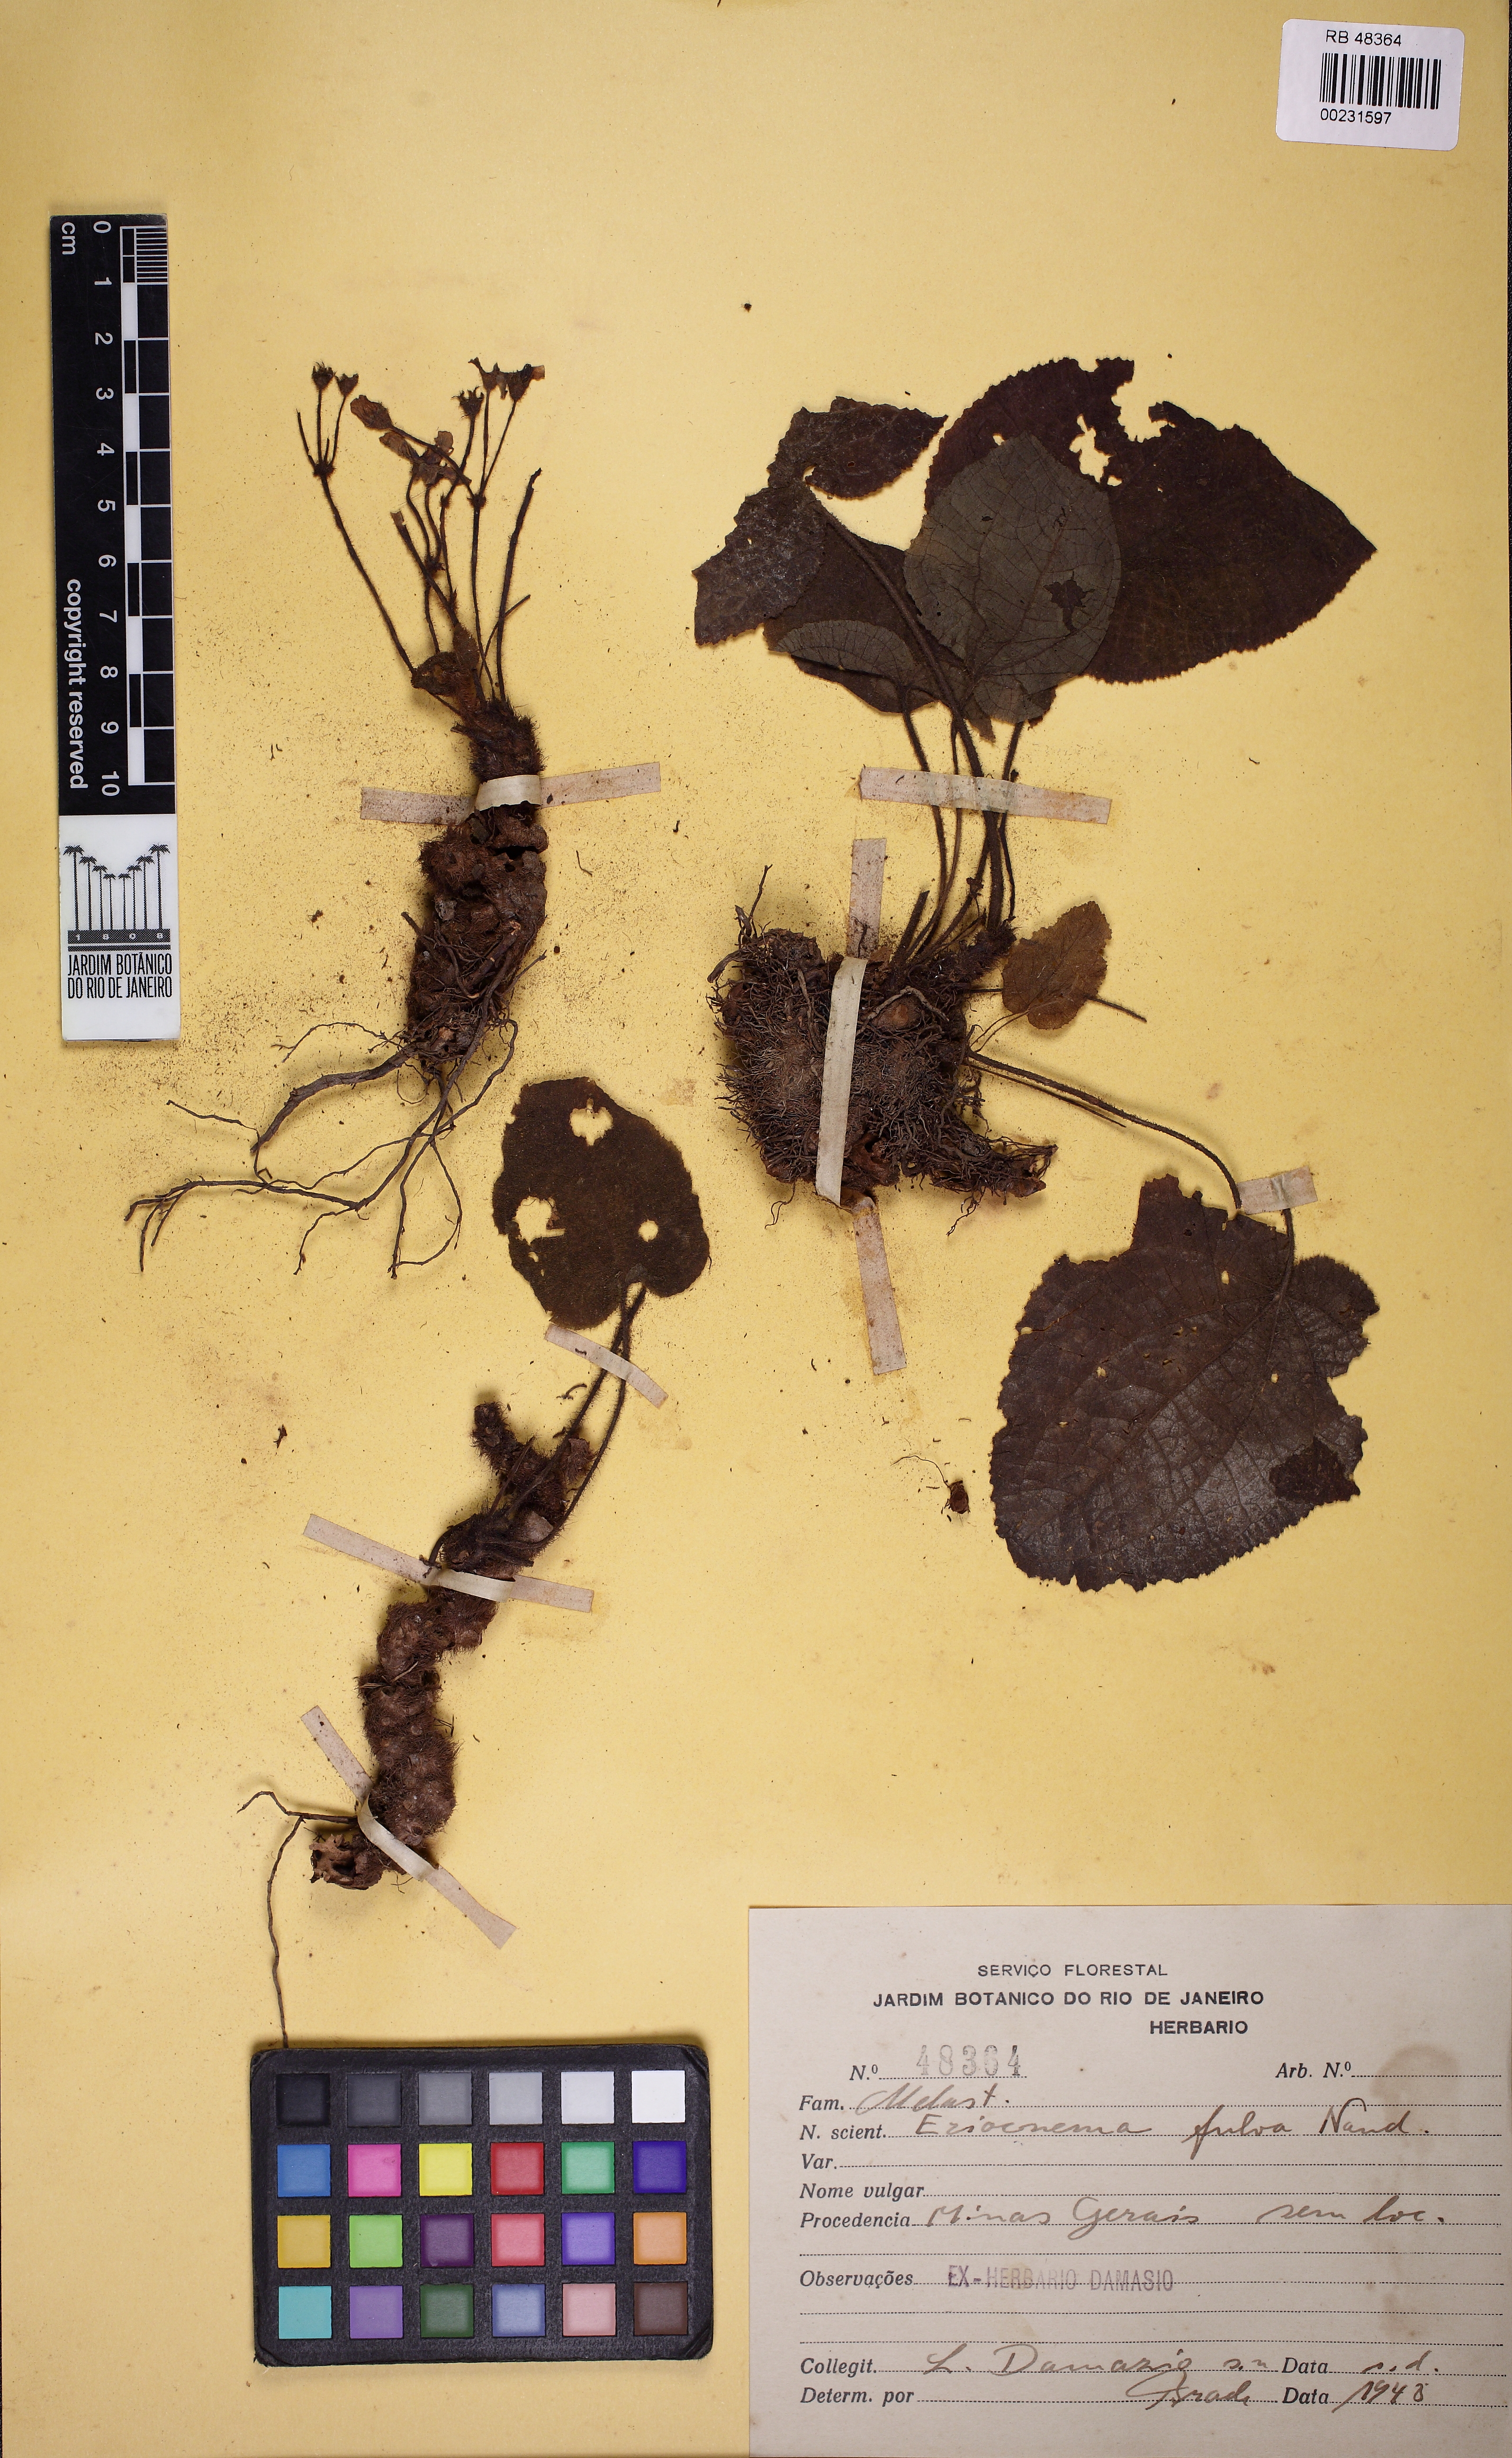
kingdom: Plantae
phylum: Tracheophyta
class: Magnoliopsida
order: Myrtales
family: Melastomataceae
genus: Eriocnema
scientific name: Eriocnema acaulis
